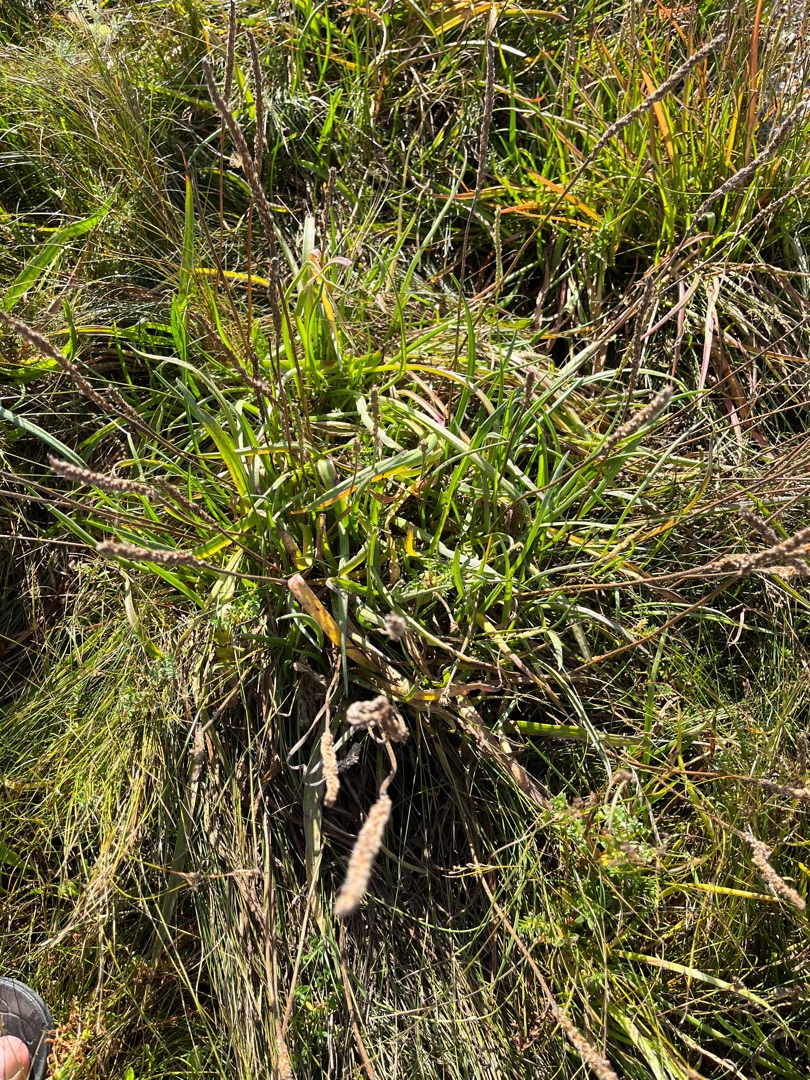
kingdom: Plantae
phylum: Tracheophyta
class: Magnoliopsida
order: Lamiales
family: Plantaginaceae
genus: Plantago
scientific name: Plantago maritima
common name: Strand-vejbred
